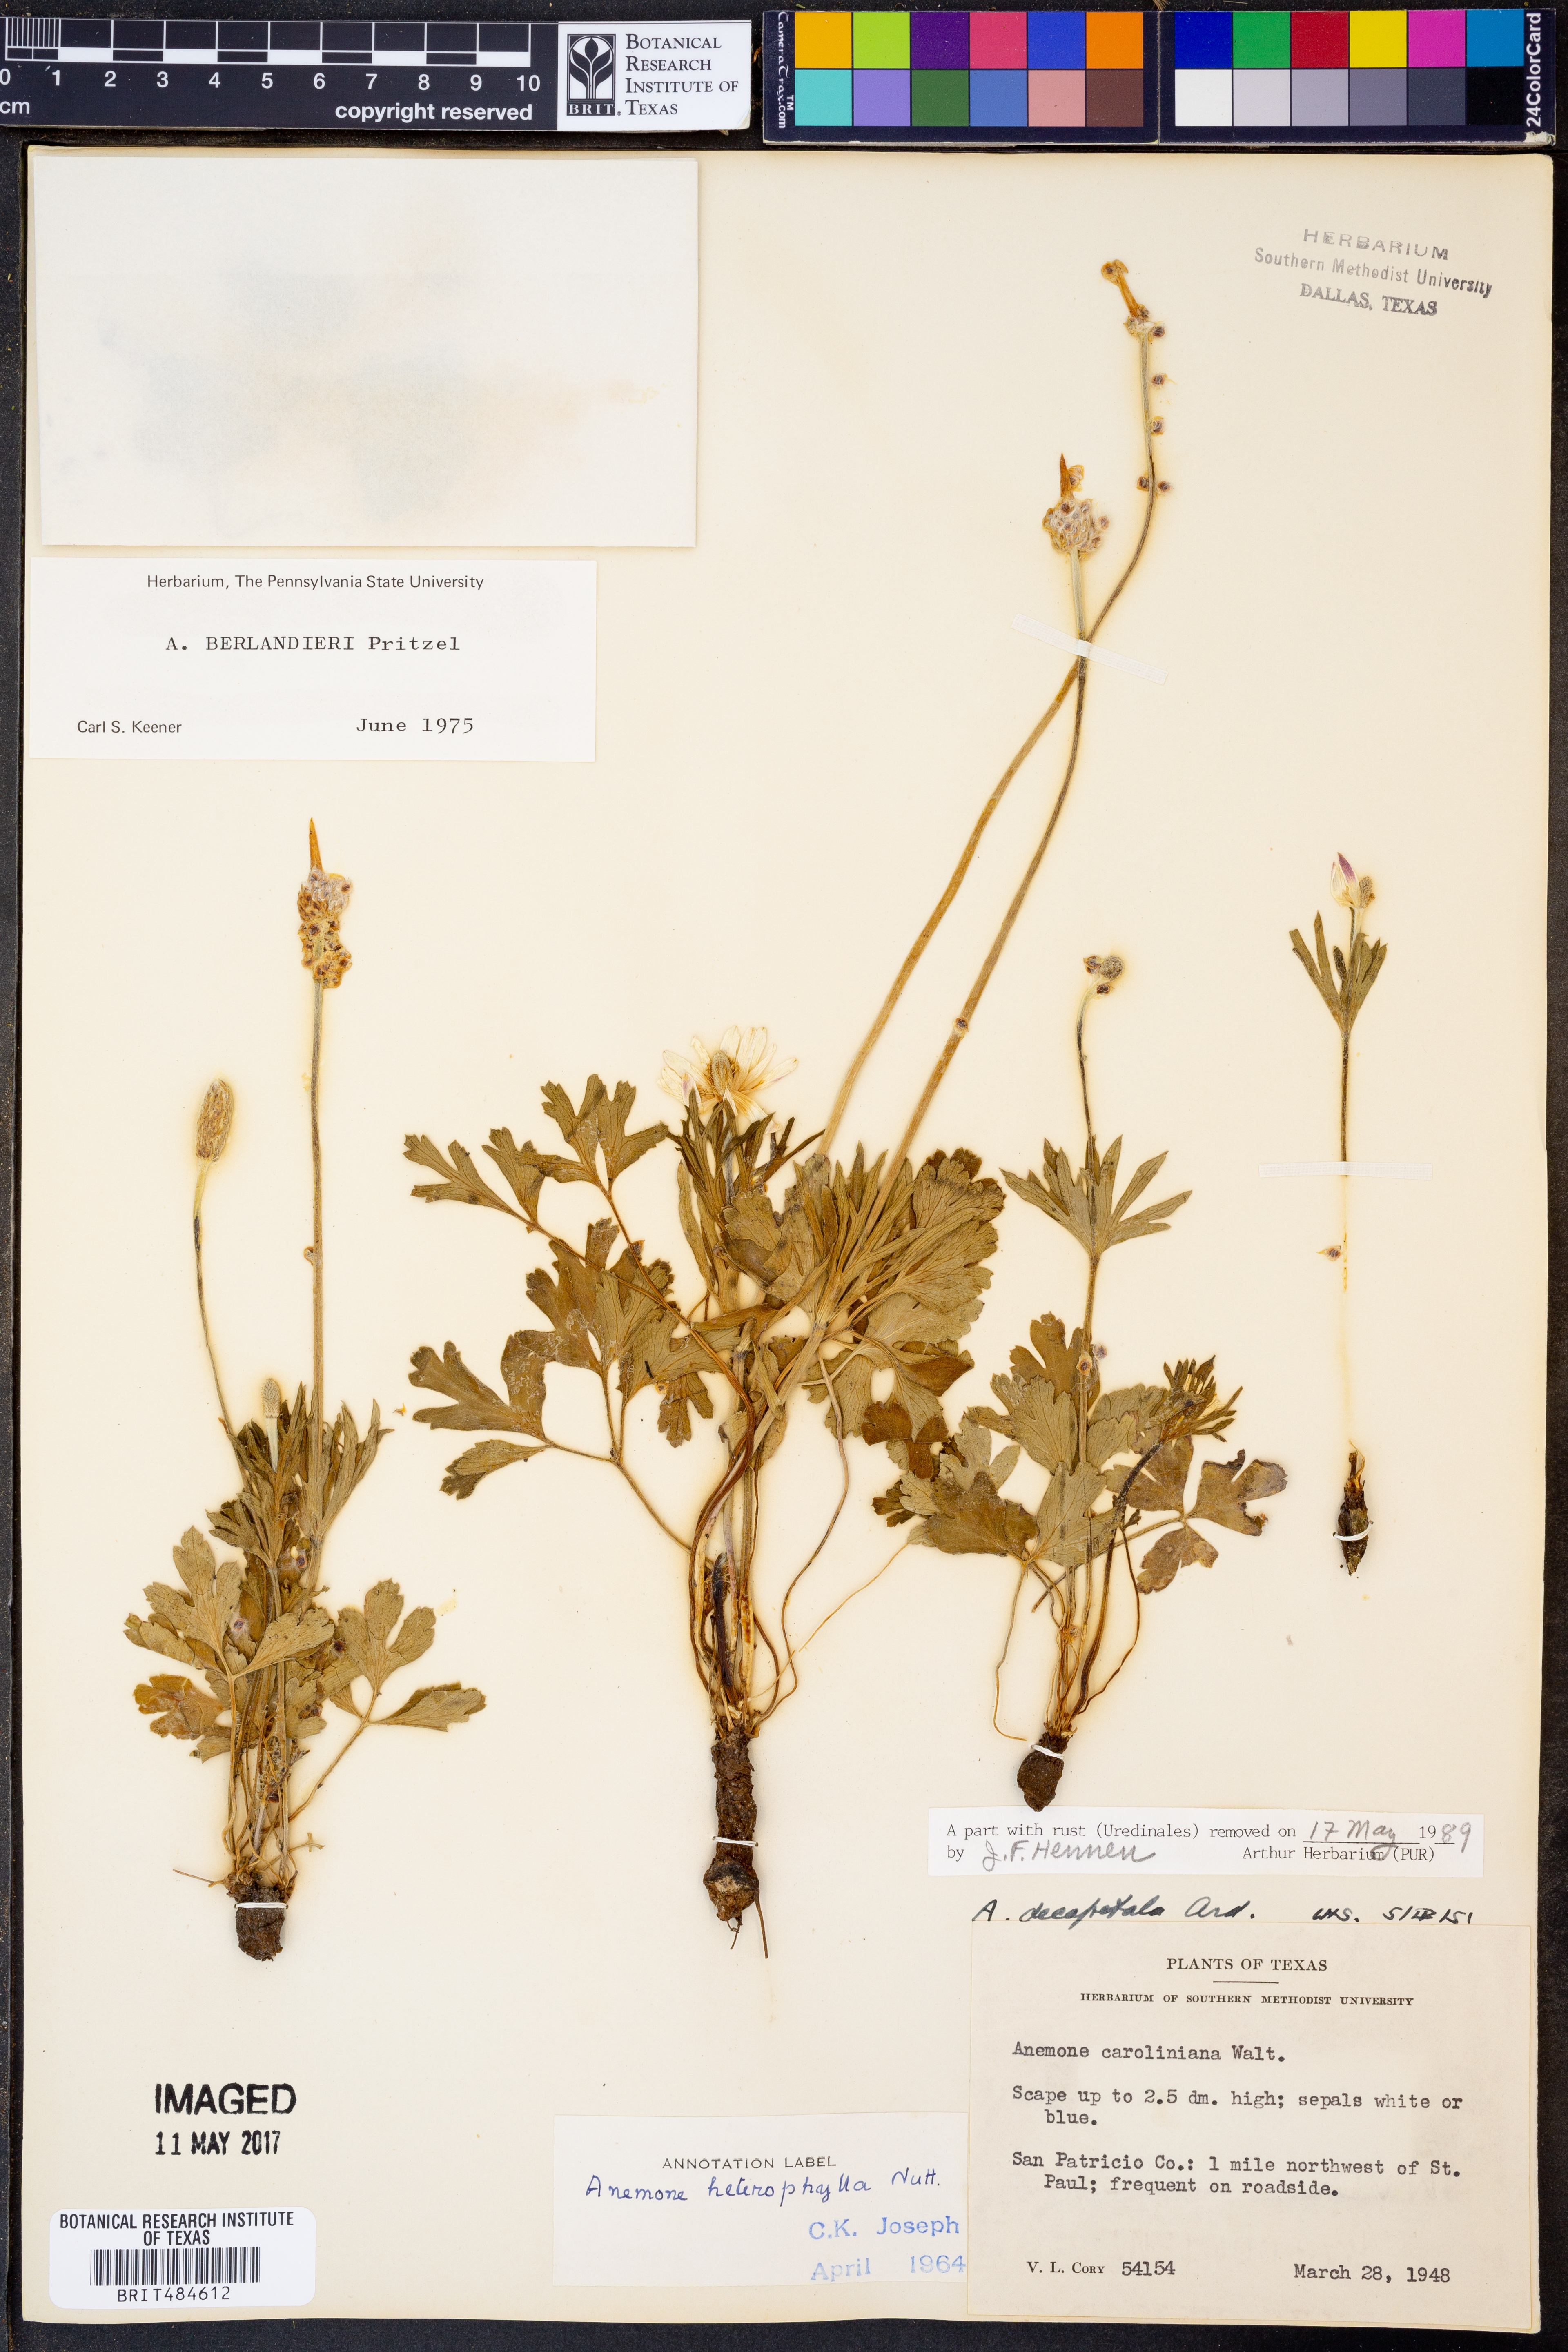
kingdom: Plantae
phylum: Tracheophyta
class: Magnoliopsida
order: Ranunculales
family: Ranunculaceae
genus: Anemone
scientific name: Anemone berlandieri
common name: Ten-petal anemone
